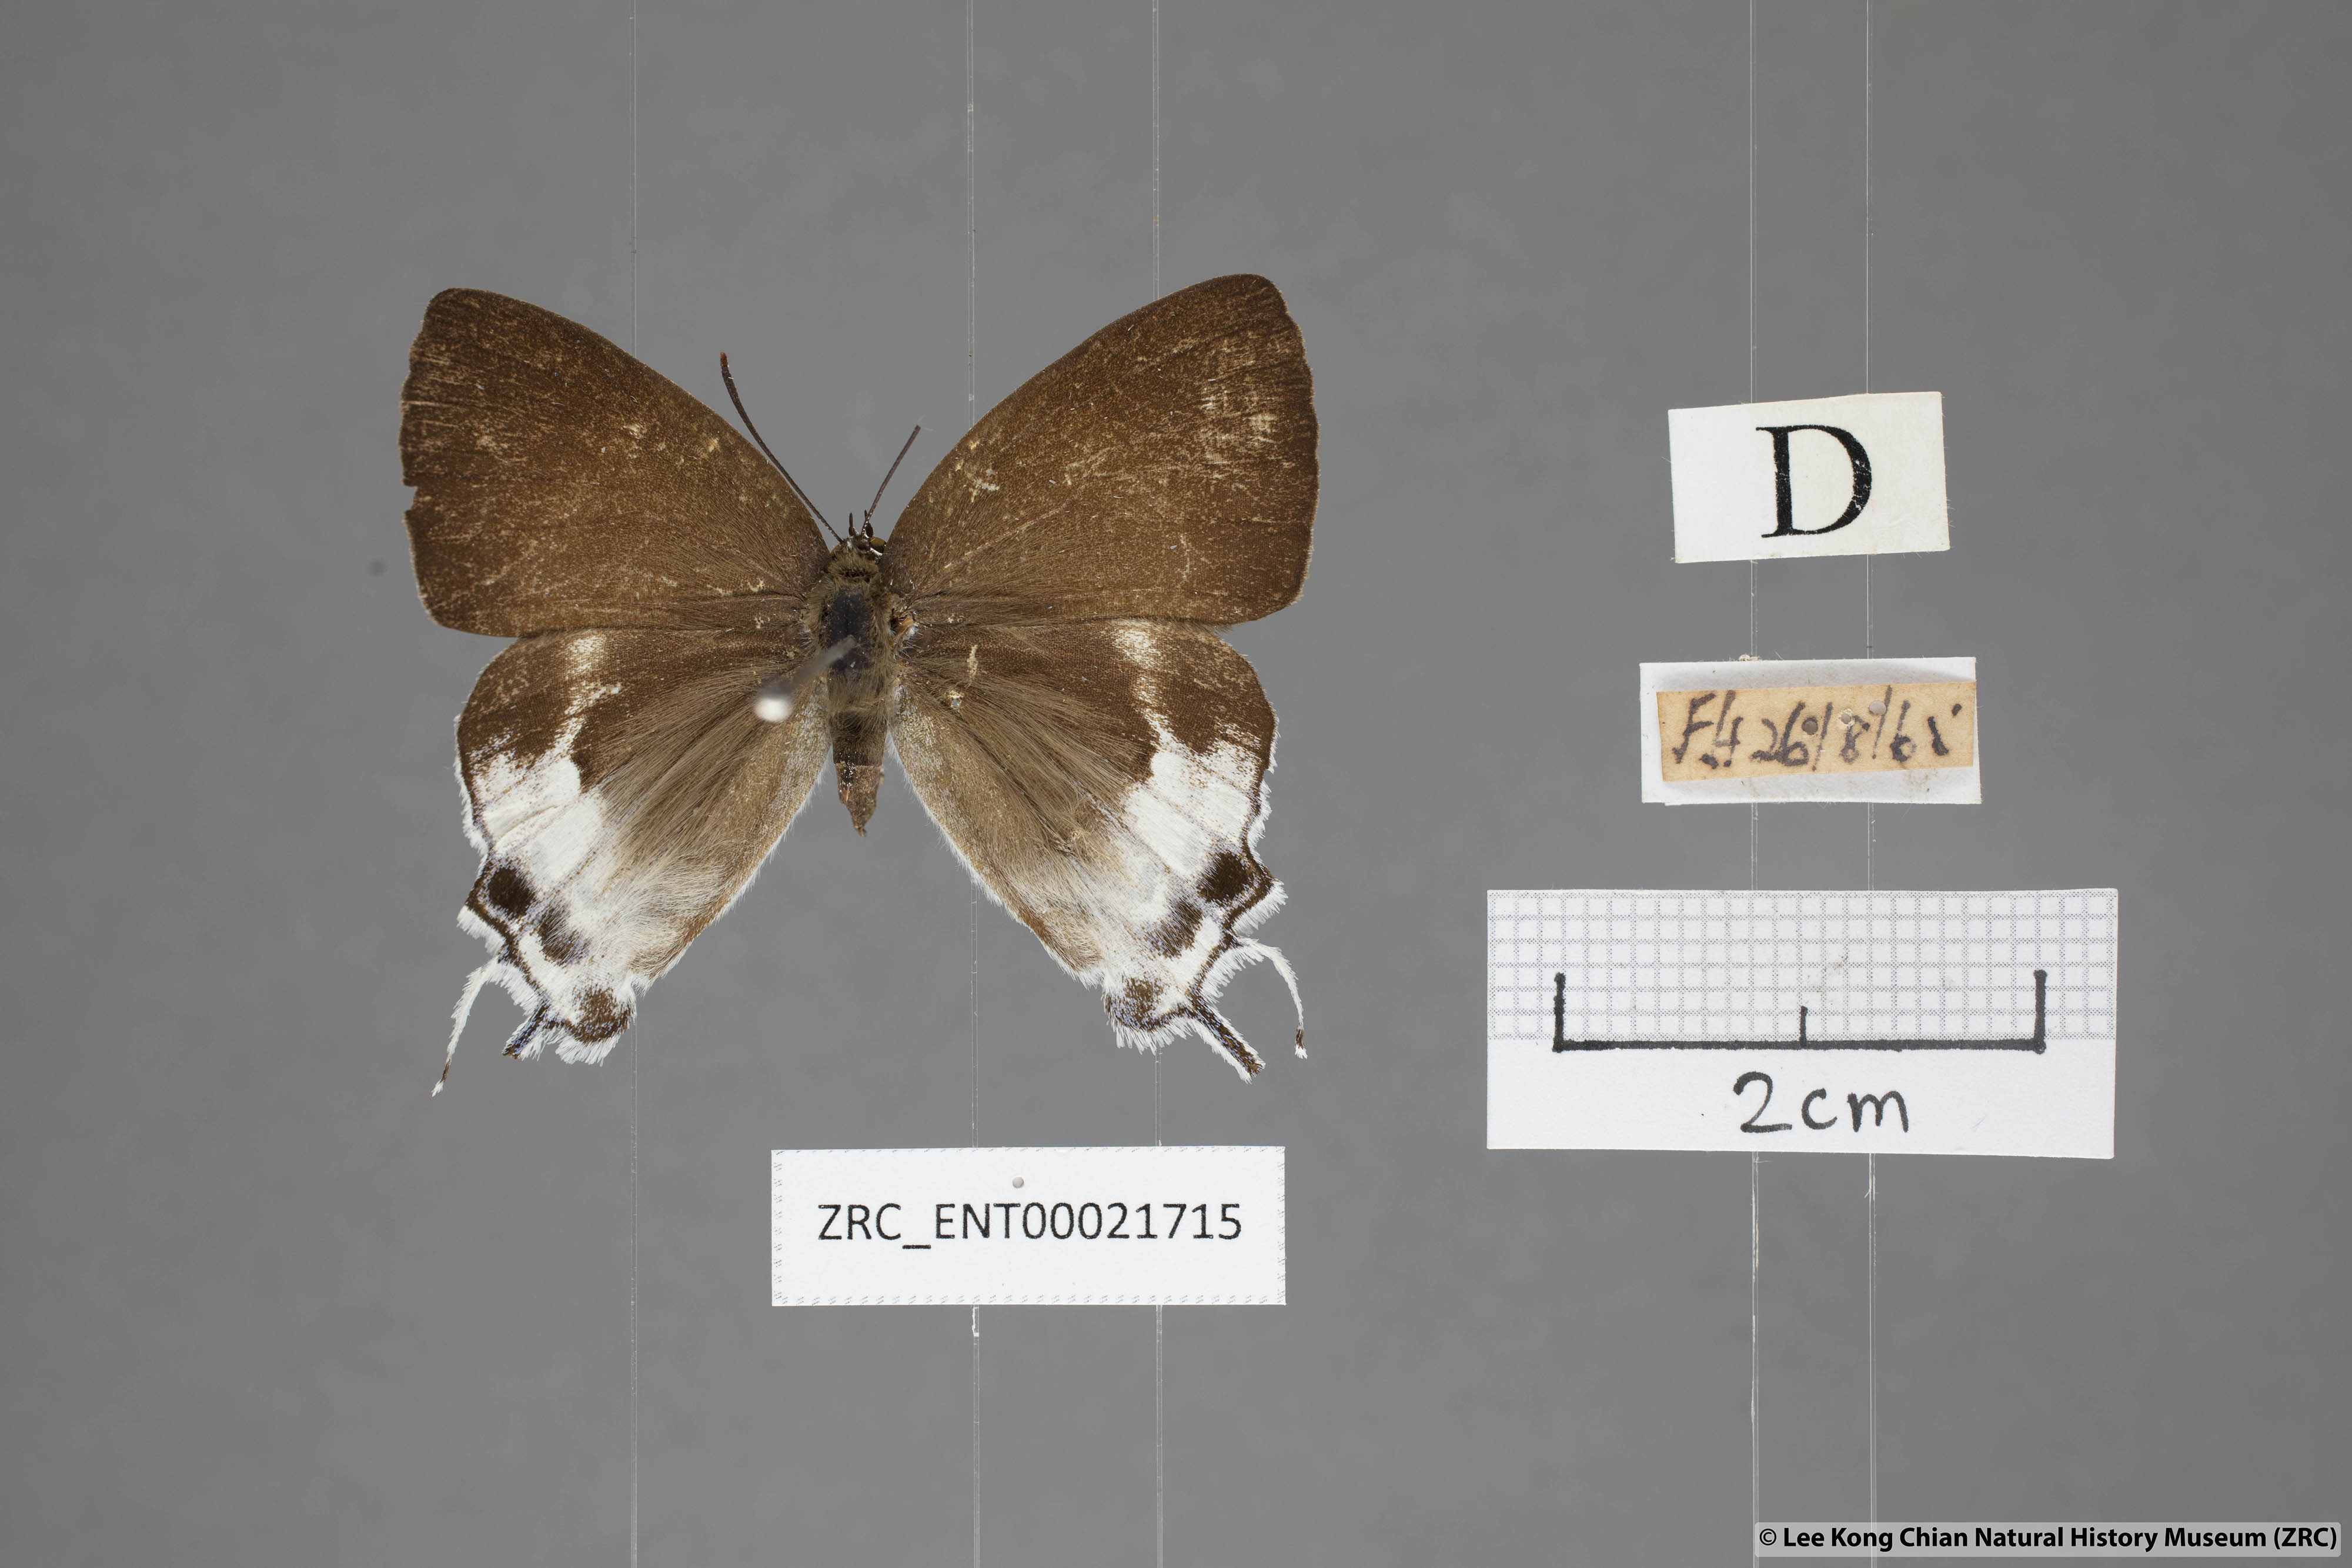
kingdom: Animalia
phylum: Arthropoda
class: Insecta
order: Lepidoptera
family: Lycaenidae
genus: Neocheritra
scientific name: Neocheritra
